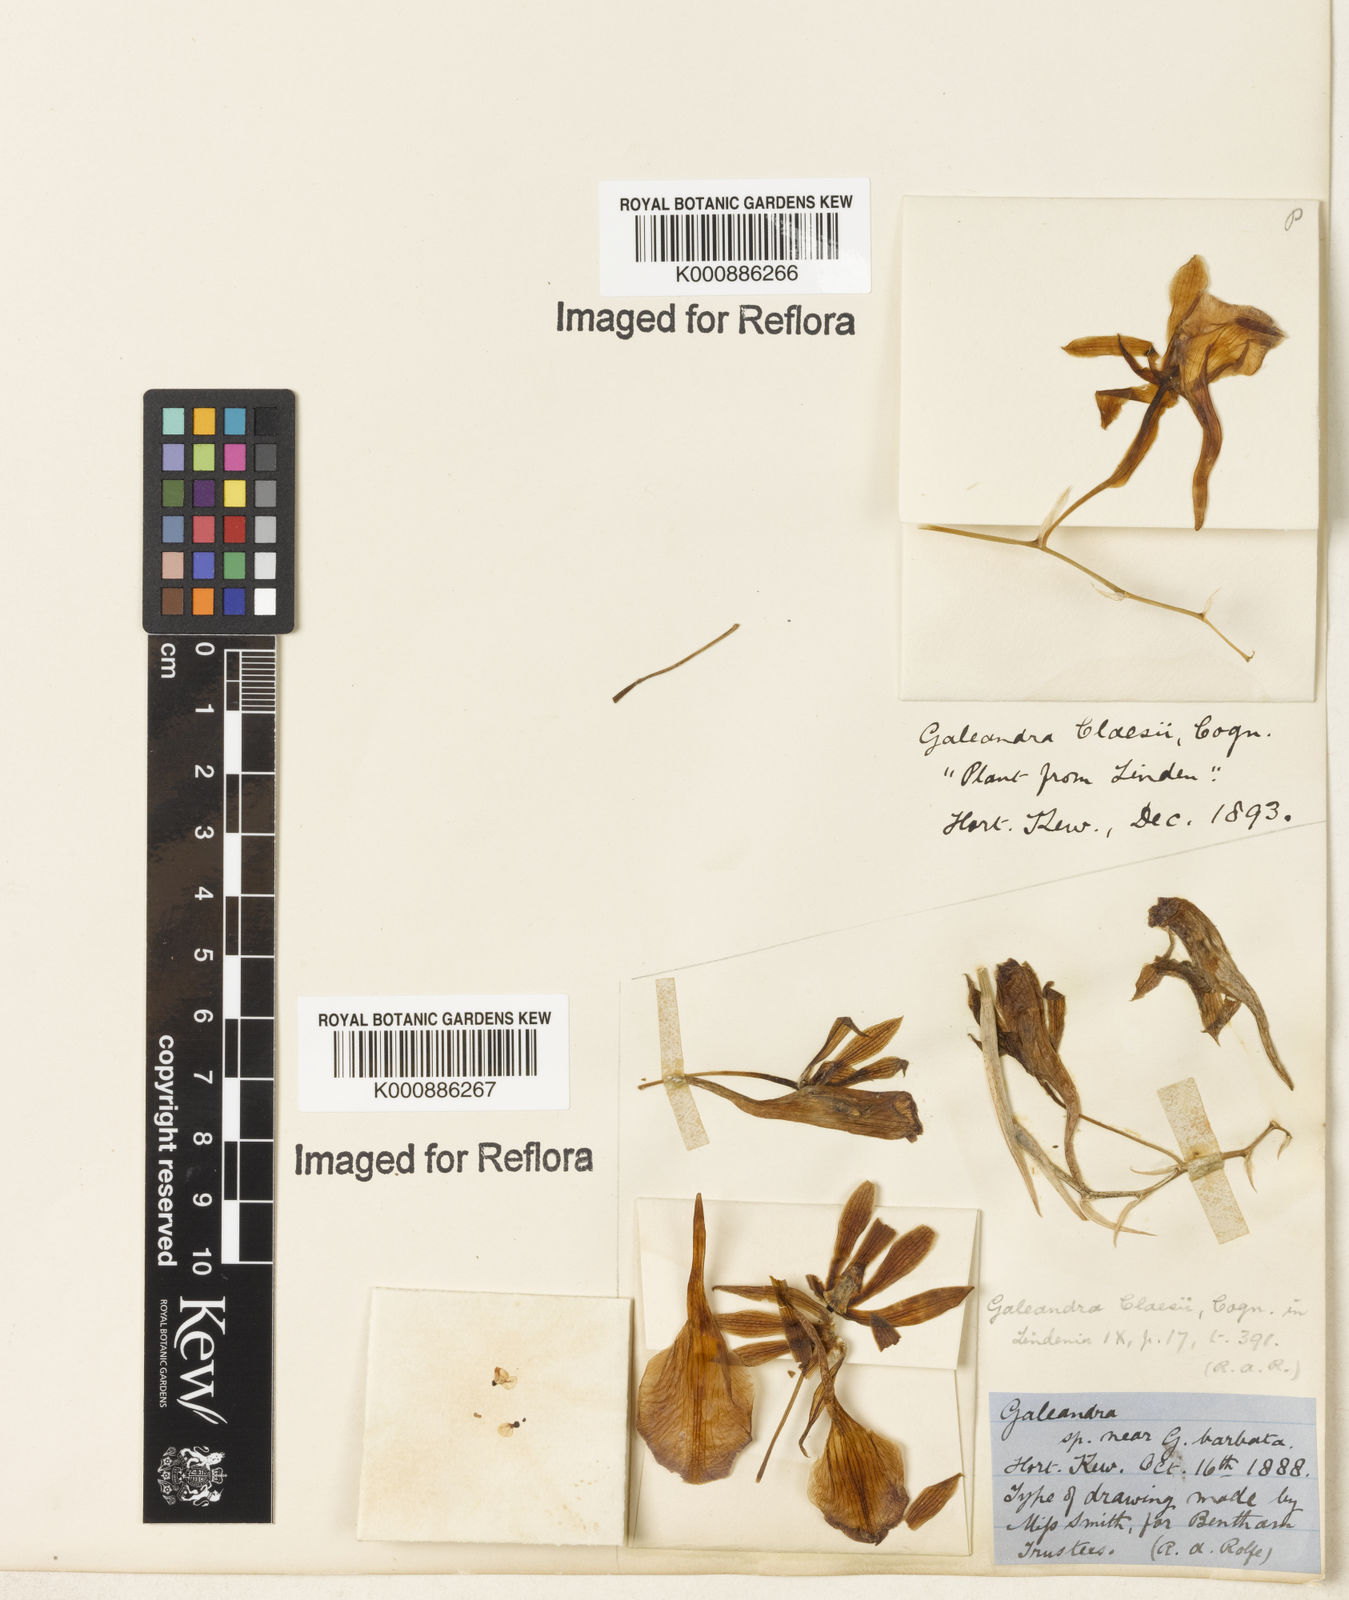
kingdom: Plantae
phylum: Tracheophyta
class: Liliopsida
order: Asparagales
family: Orchidaceae
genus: Galeandra
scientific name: Galeandra claesii
